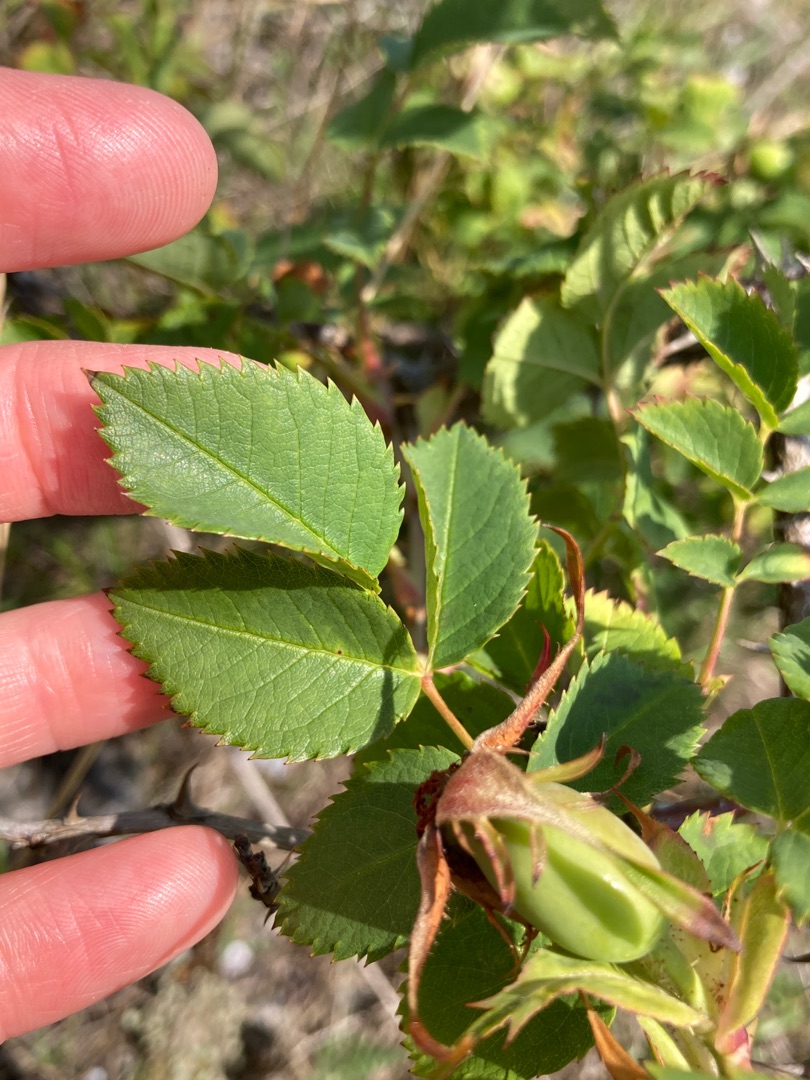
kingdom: Plantae
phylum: Tracheophyta
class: Magnoliopsida
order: Rosales
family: Rosaceae
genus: Rosa
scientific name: Rosa
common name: Roseslægten
